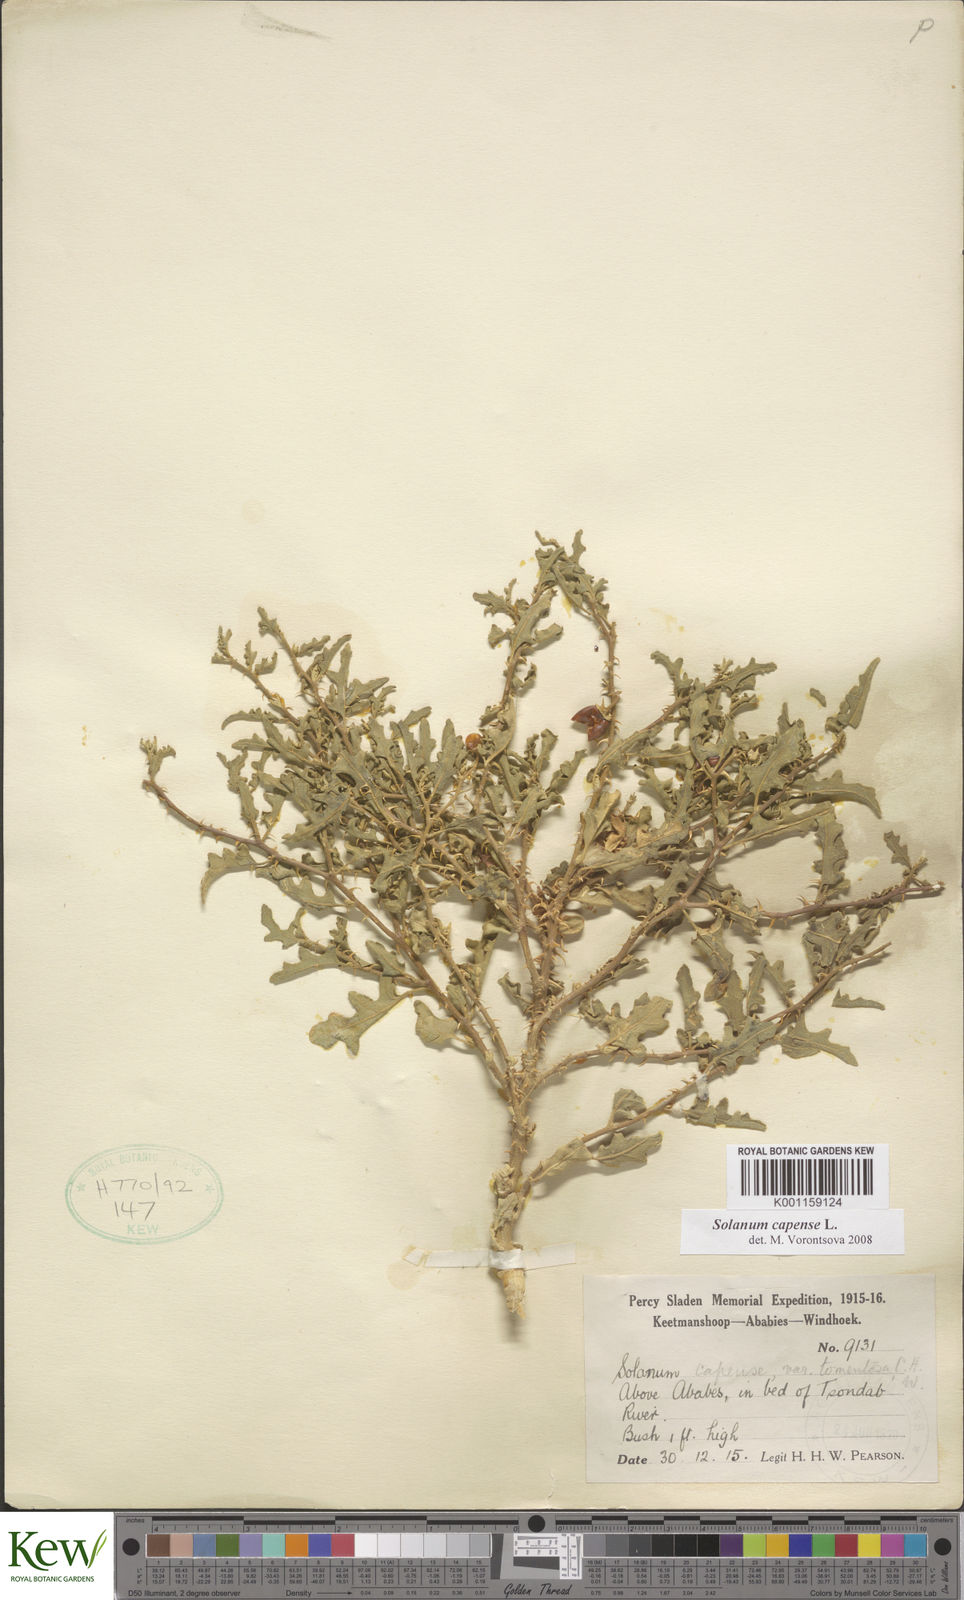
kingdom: Plantae
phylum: Tracheophyta
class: Magnoliopsida
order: Solanales
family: Solanaceae
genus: Solanum
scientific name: Solanum capense
